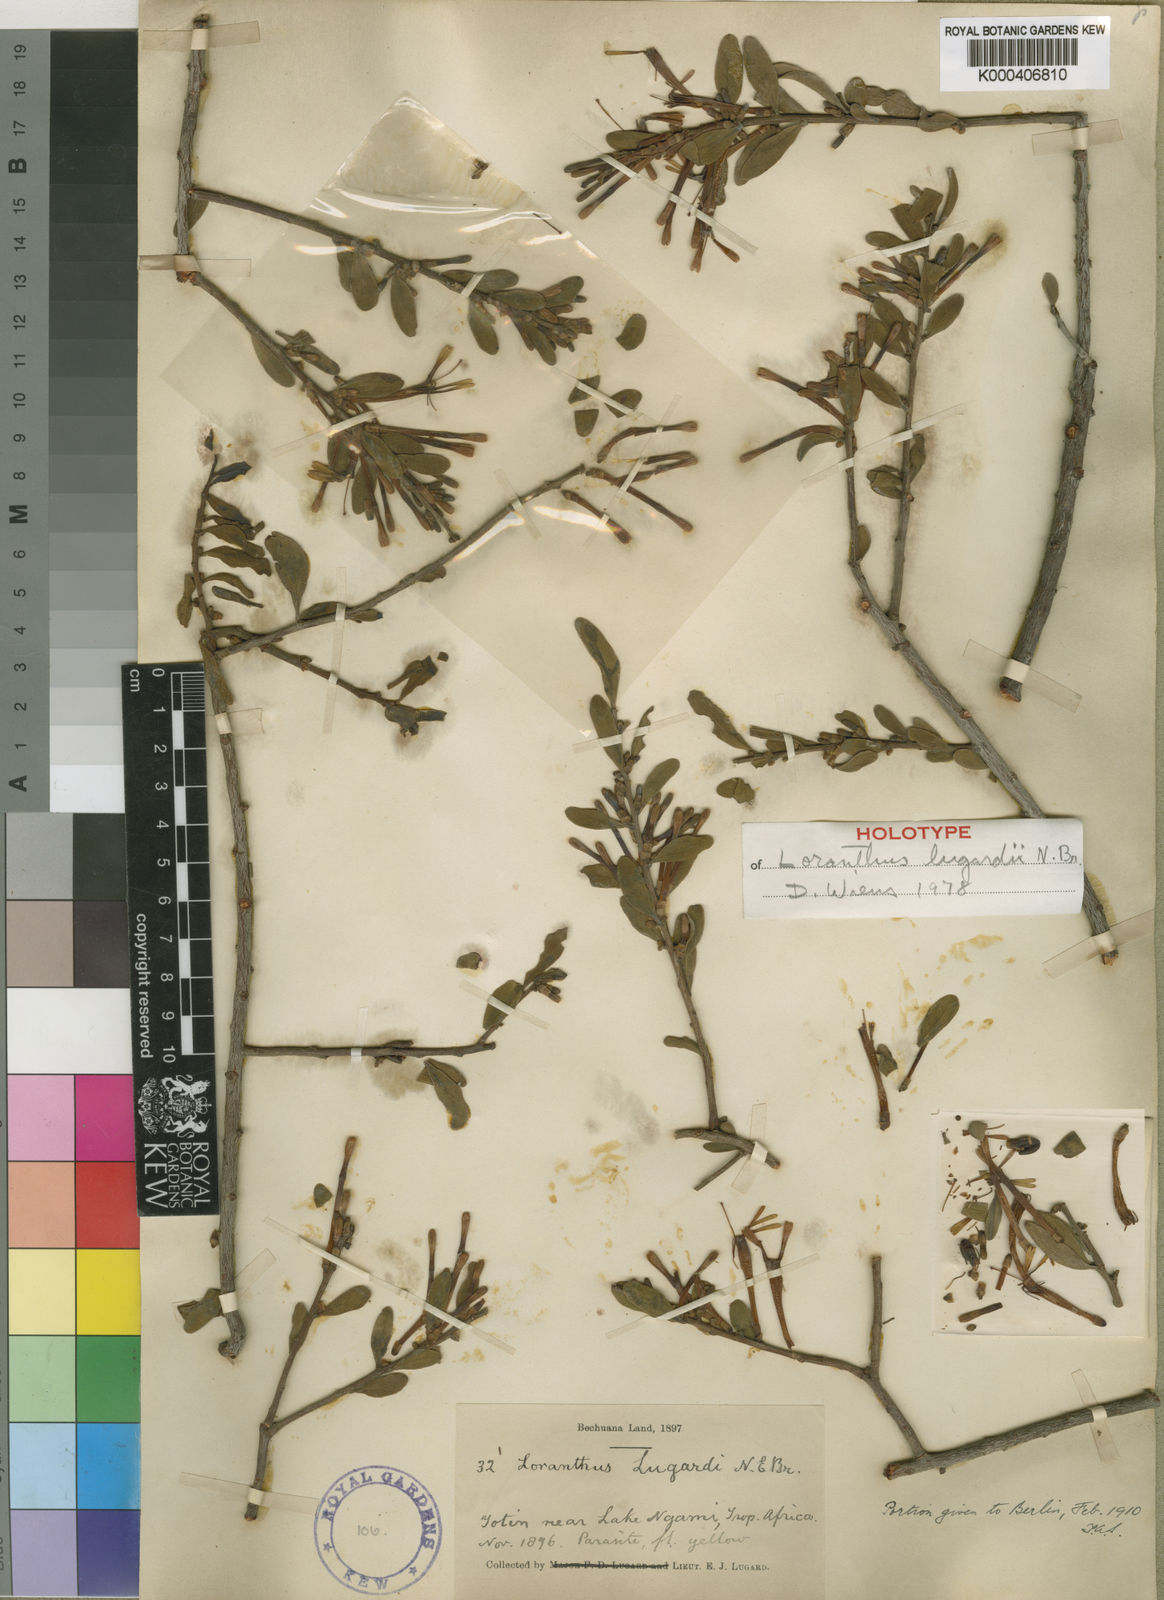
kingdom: Plantae
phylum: Tracheophyta
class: Magnoliopsida
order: Santalales
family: Loranthaceae
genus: Agelanthus
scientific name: Agelanthus lugardii
